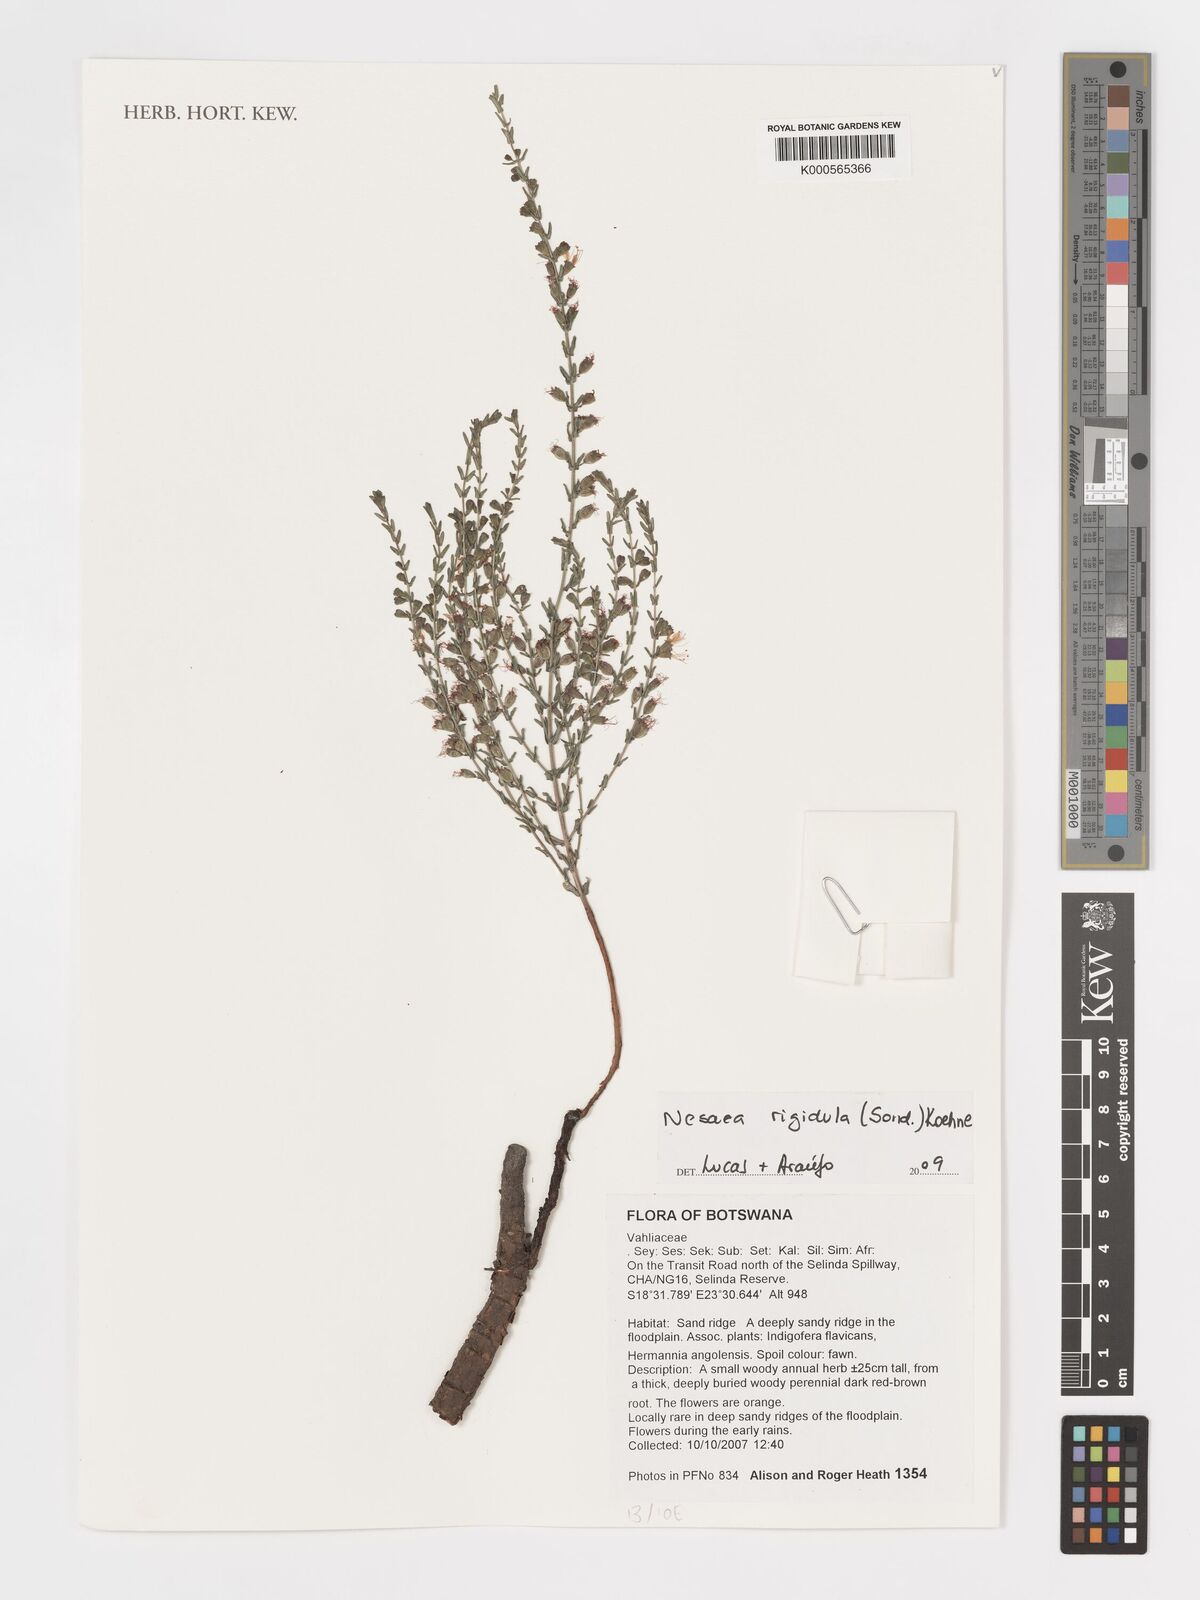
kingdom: Plantae
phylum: Tracheophyta
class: Magnoliopsida
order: Myrtales
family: Lythraceae
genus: Ammannia
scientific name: Ammannia rigidula
